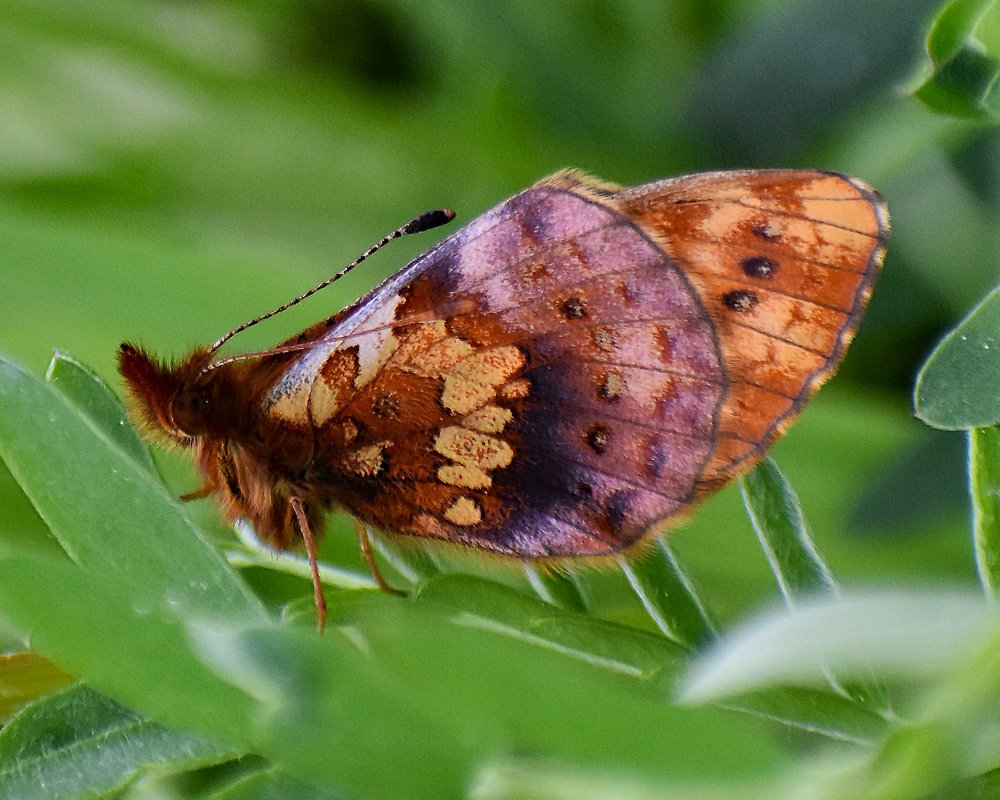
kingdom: Animalia
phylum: Arthropoda
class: Insecta
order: Lepidoptera
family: Nymphalidae
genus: Boloria
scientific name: Boloria epithore
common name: Pacific Fritillary
